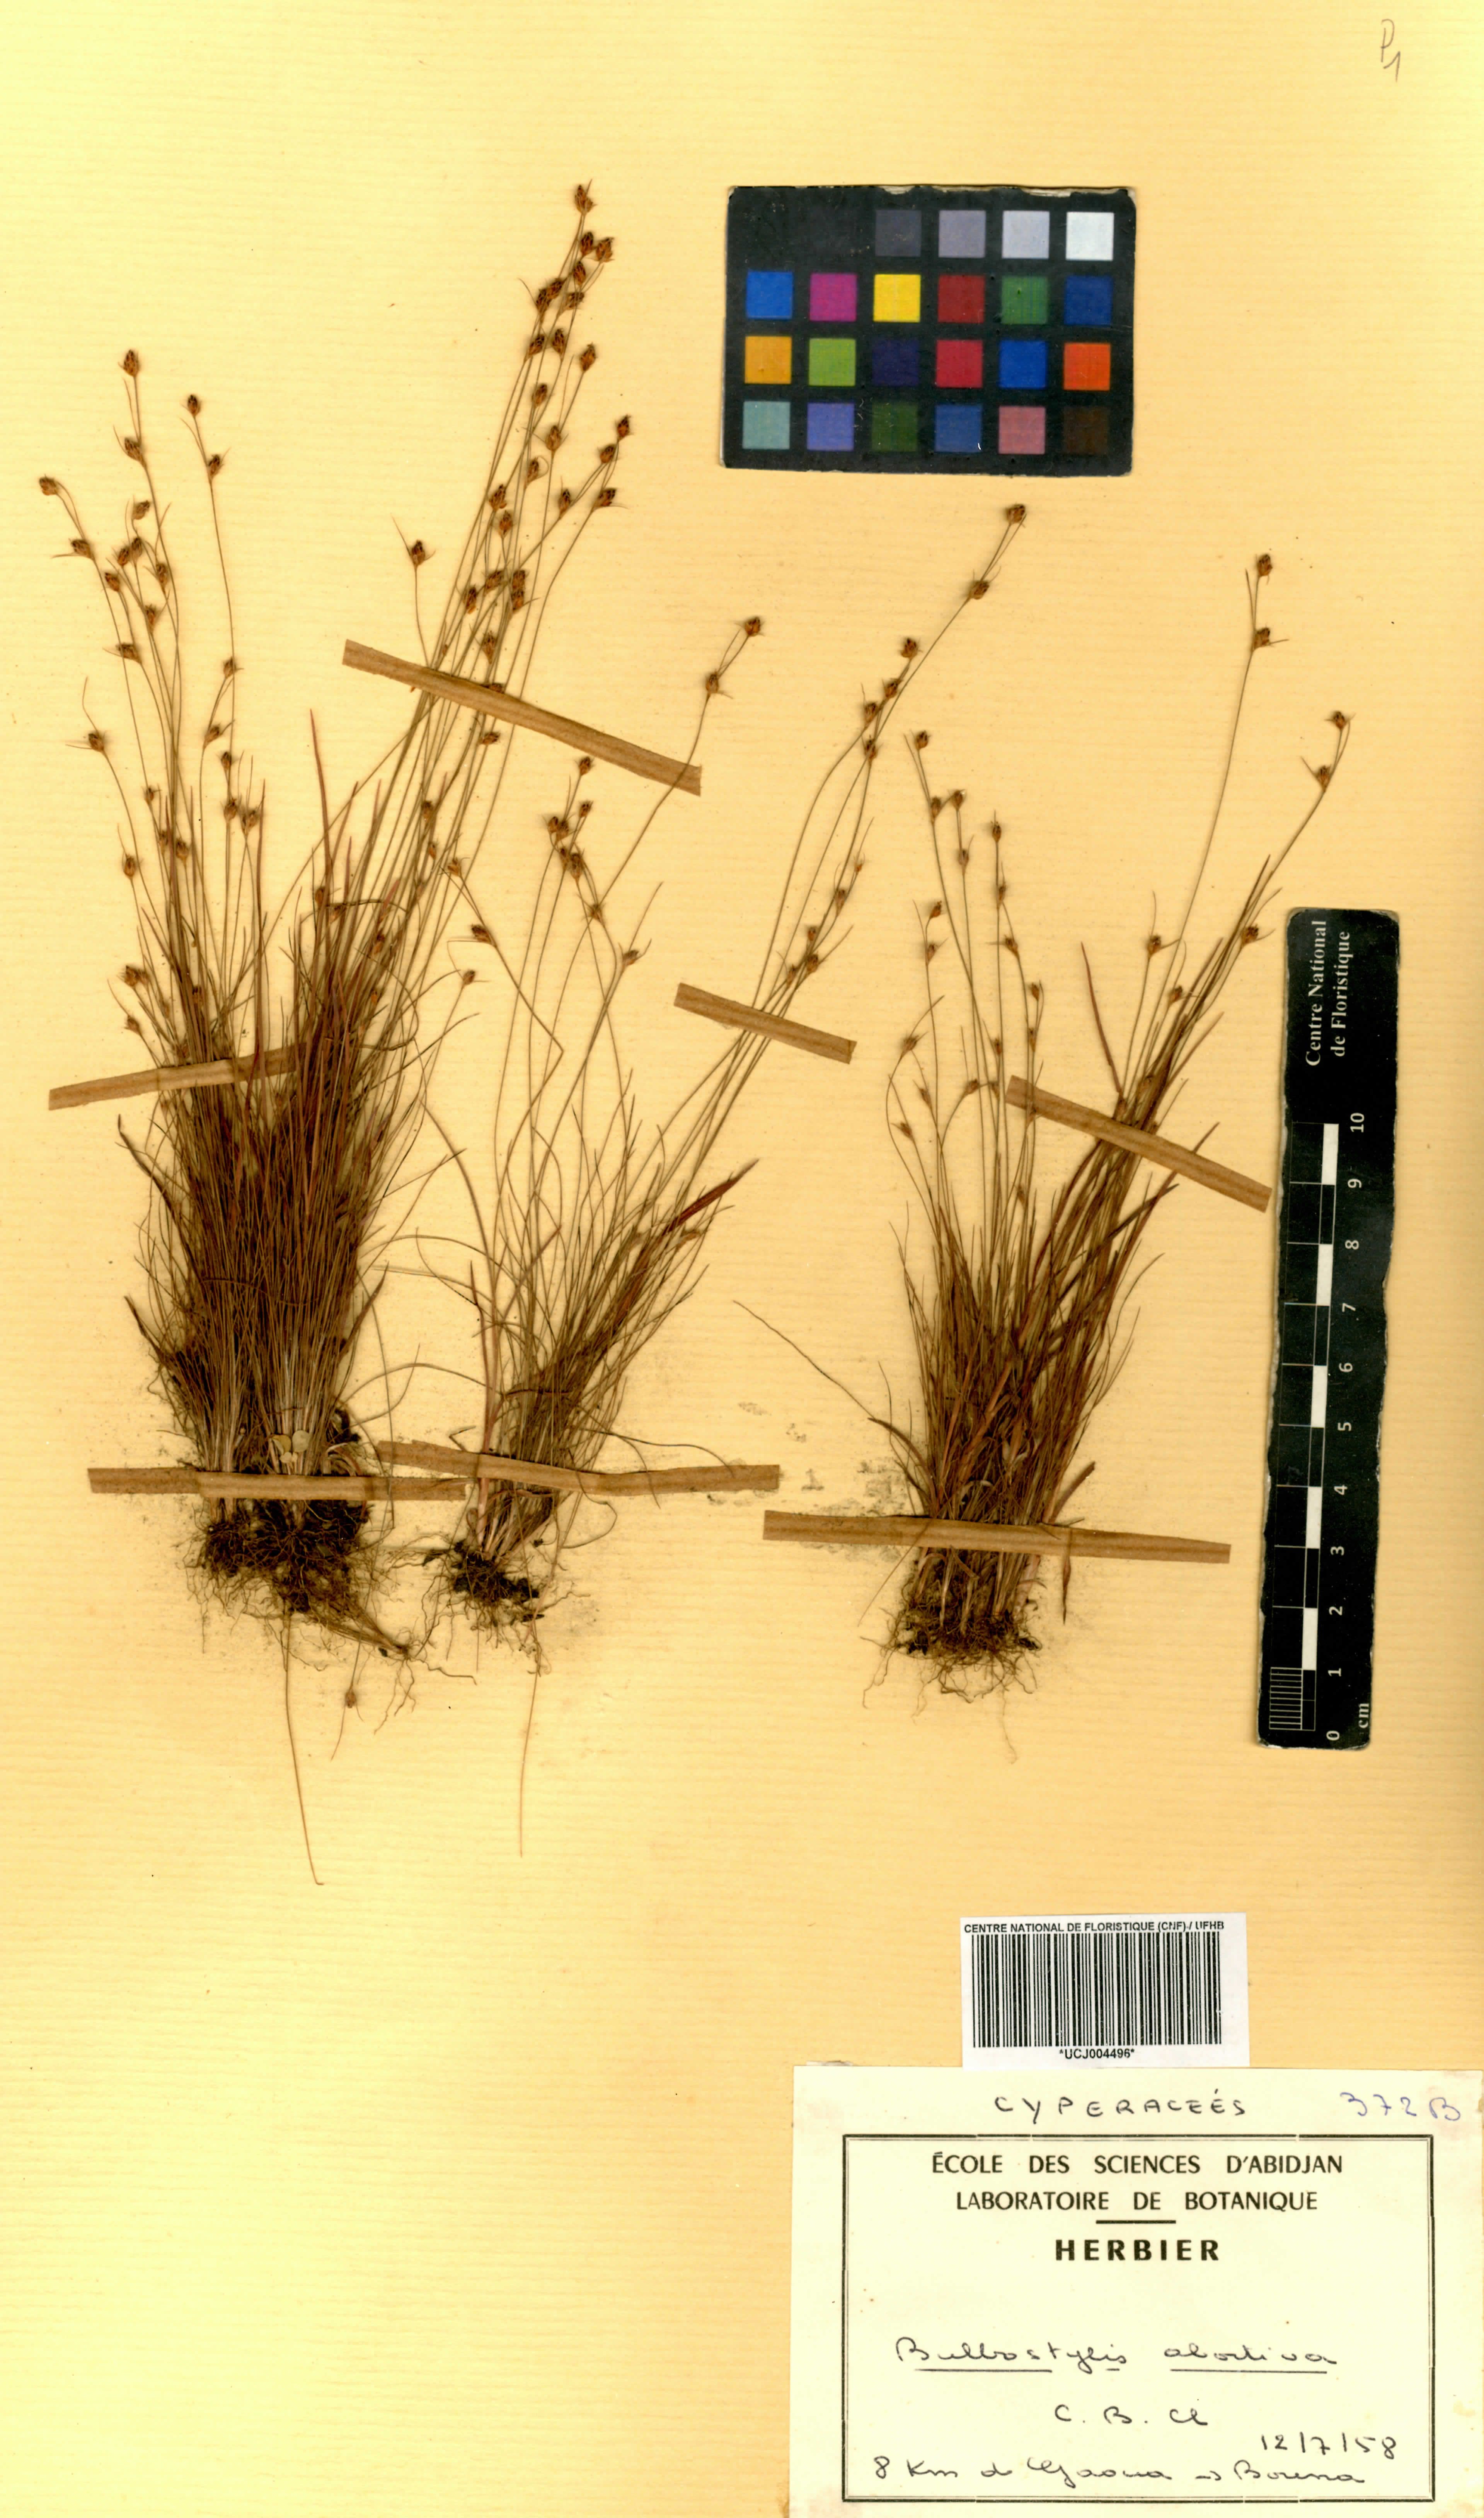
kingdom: Plantae
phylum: Tracheophyta
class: Liliopsida
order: Poales
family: Cyperaceae
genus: Bulbostylis
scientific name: Bulbostylis abortiva
